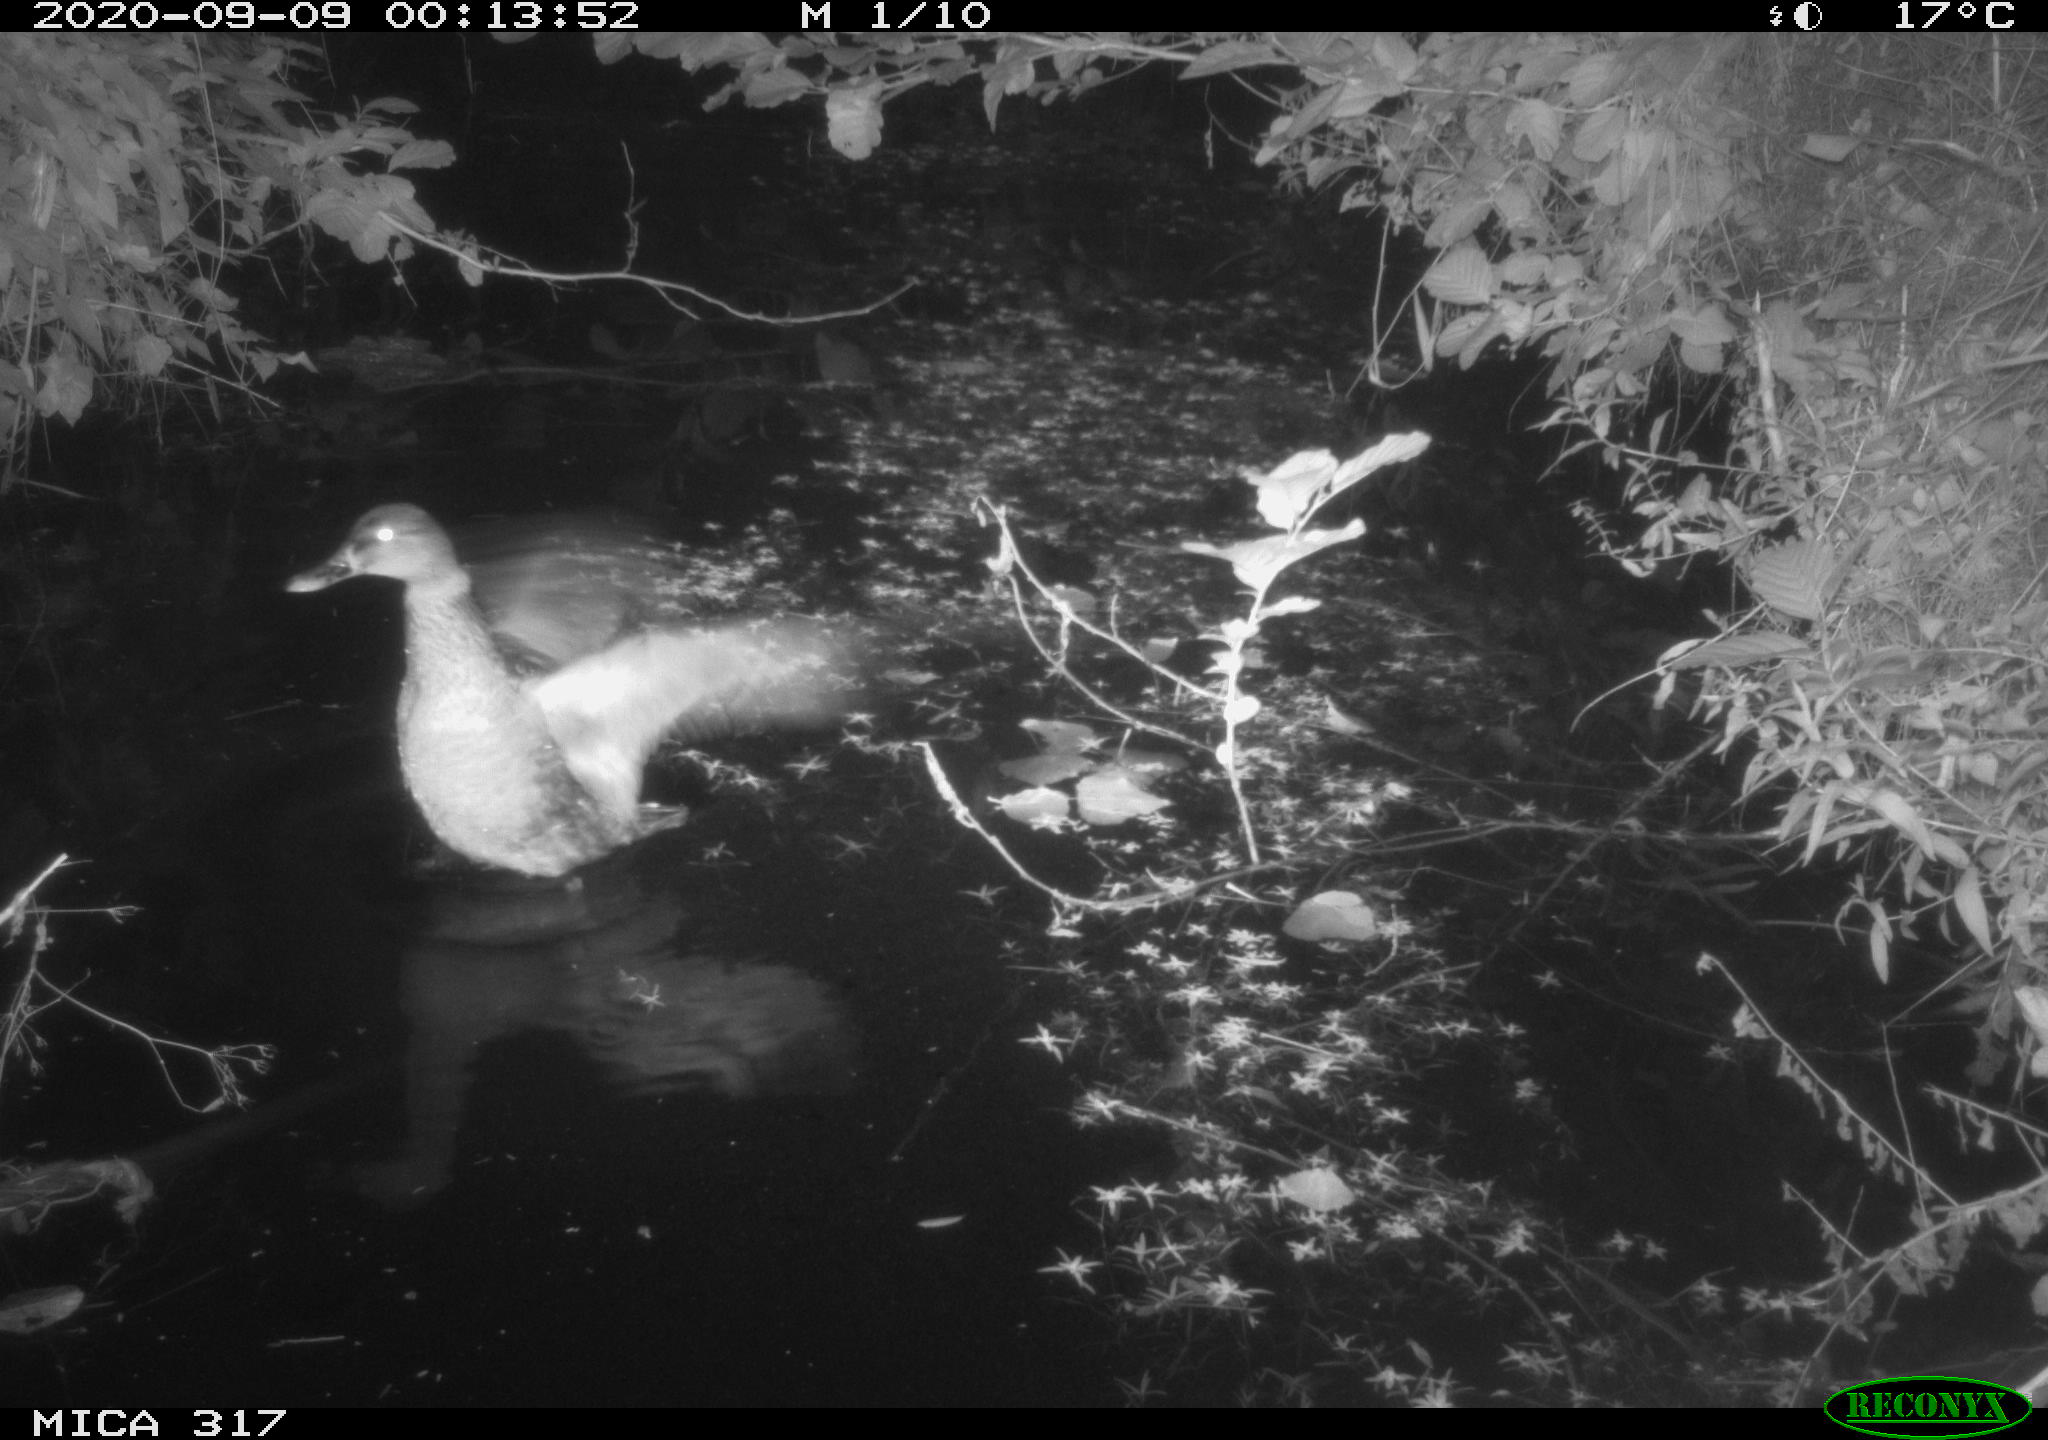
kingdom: Animalia
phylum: Chordata
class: Aves
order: Anseriformes
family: Anatidae
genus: Anas
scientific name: Anas platyrhynchos
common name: Mallard
